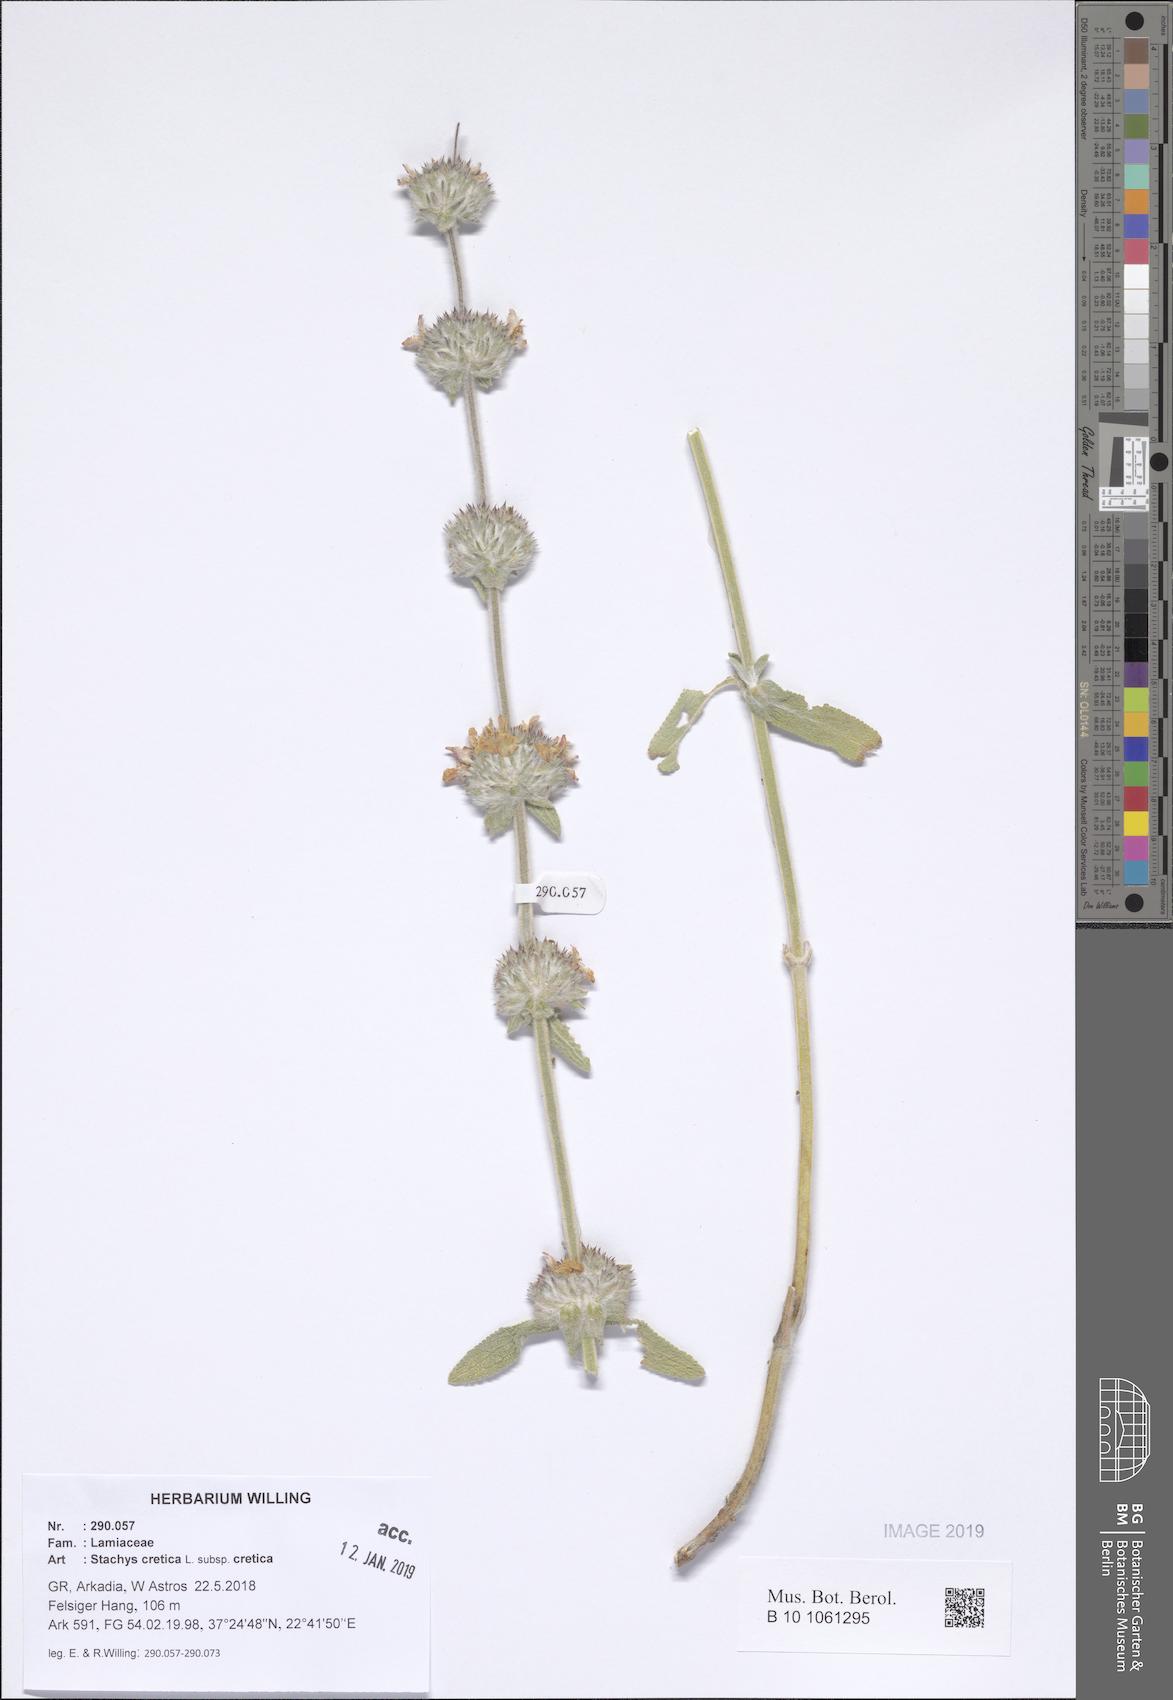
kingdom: Plantae
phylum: Tracheophyta
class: Magnoliopsida
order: Lamiales
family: Lamiaceae
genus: Stachys
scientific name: Stachys cretica
